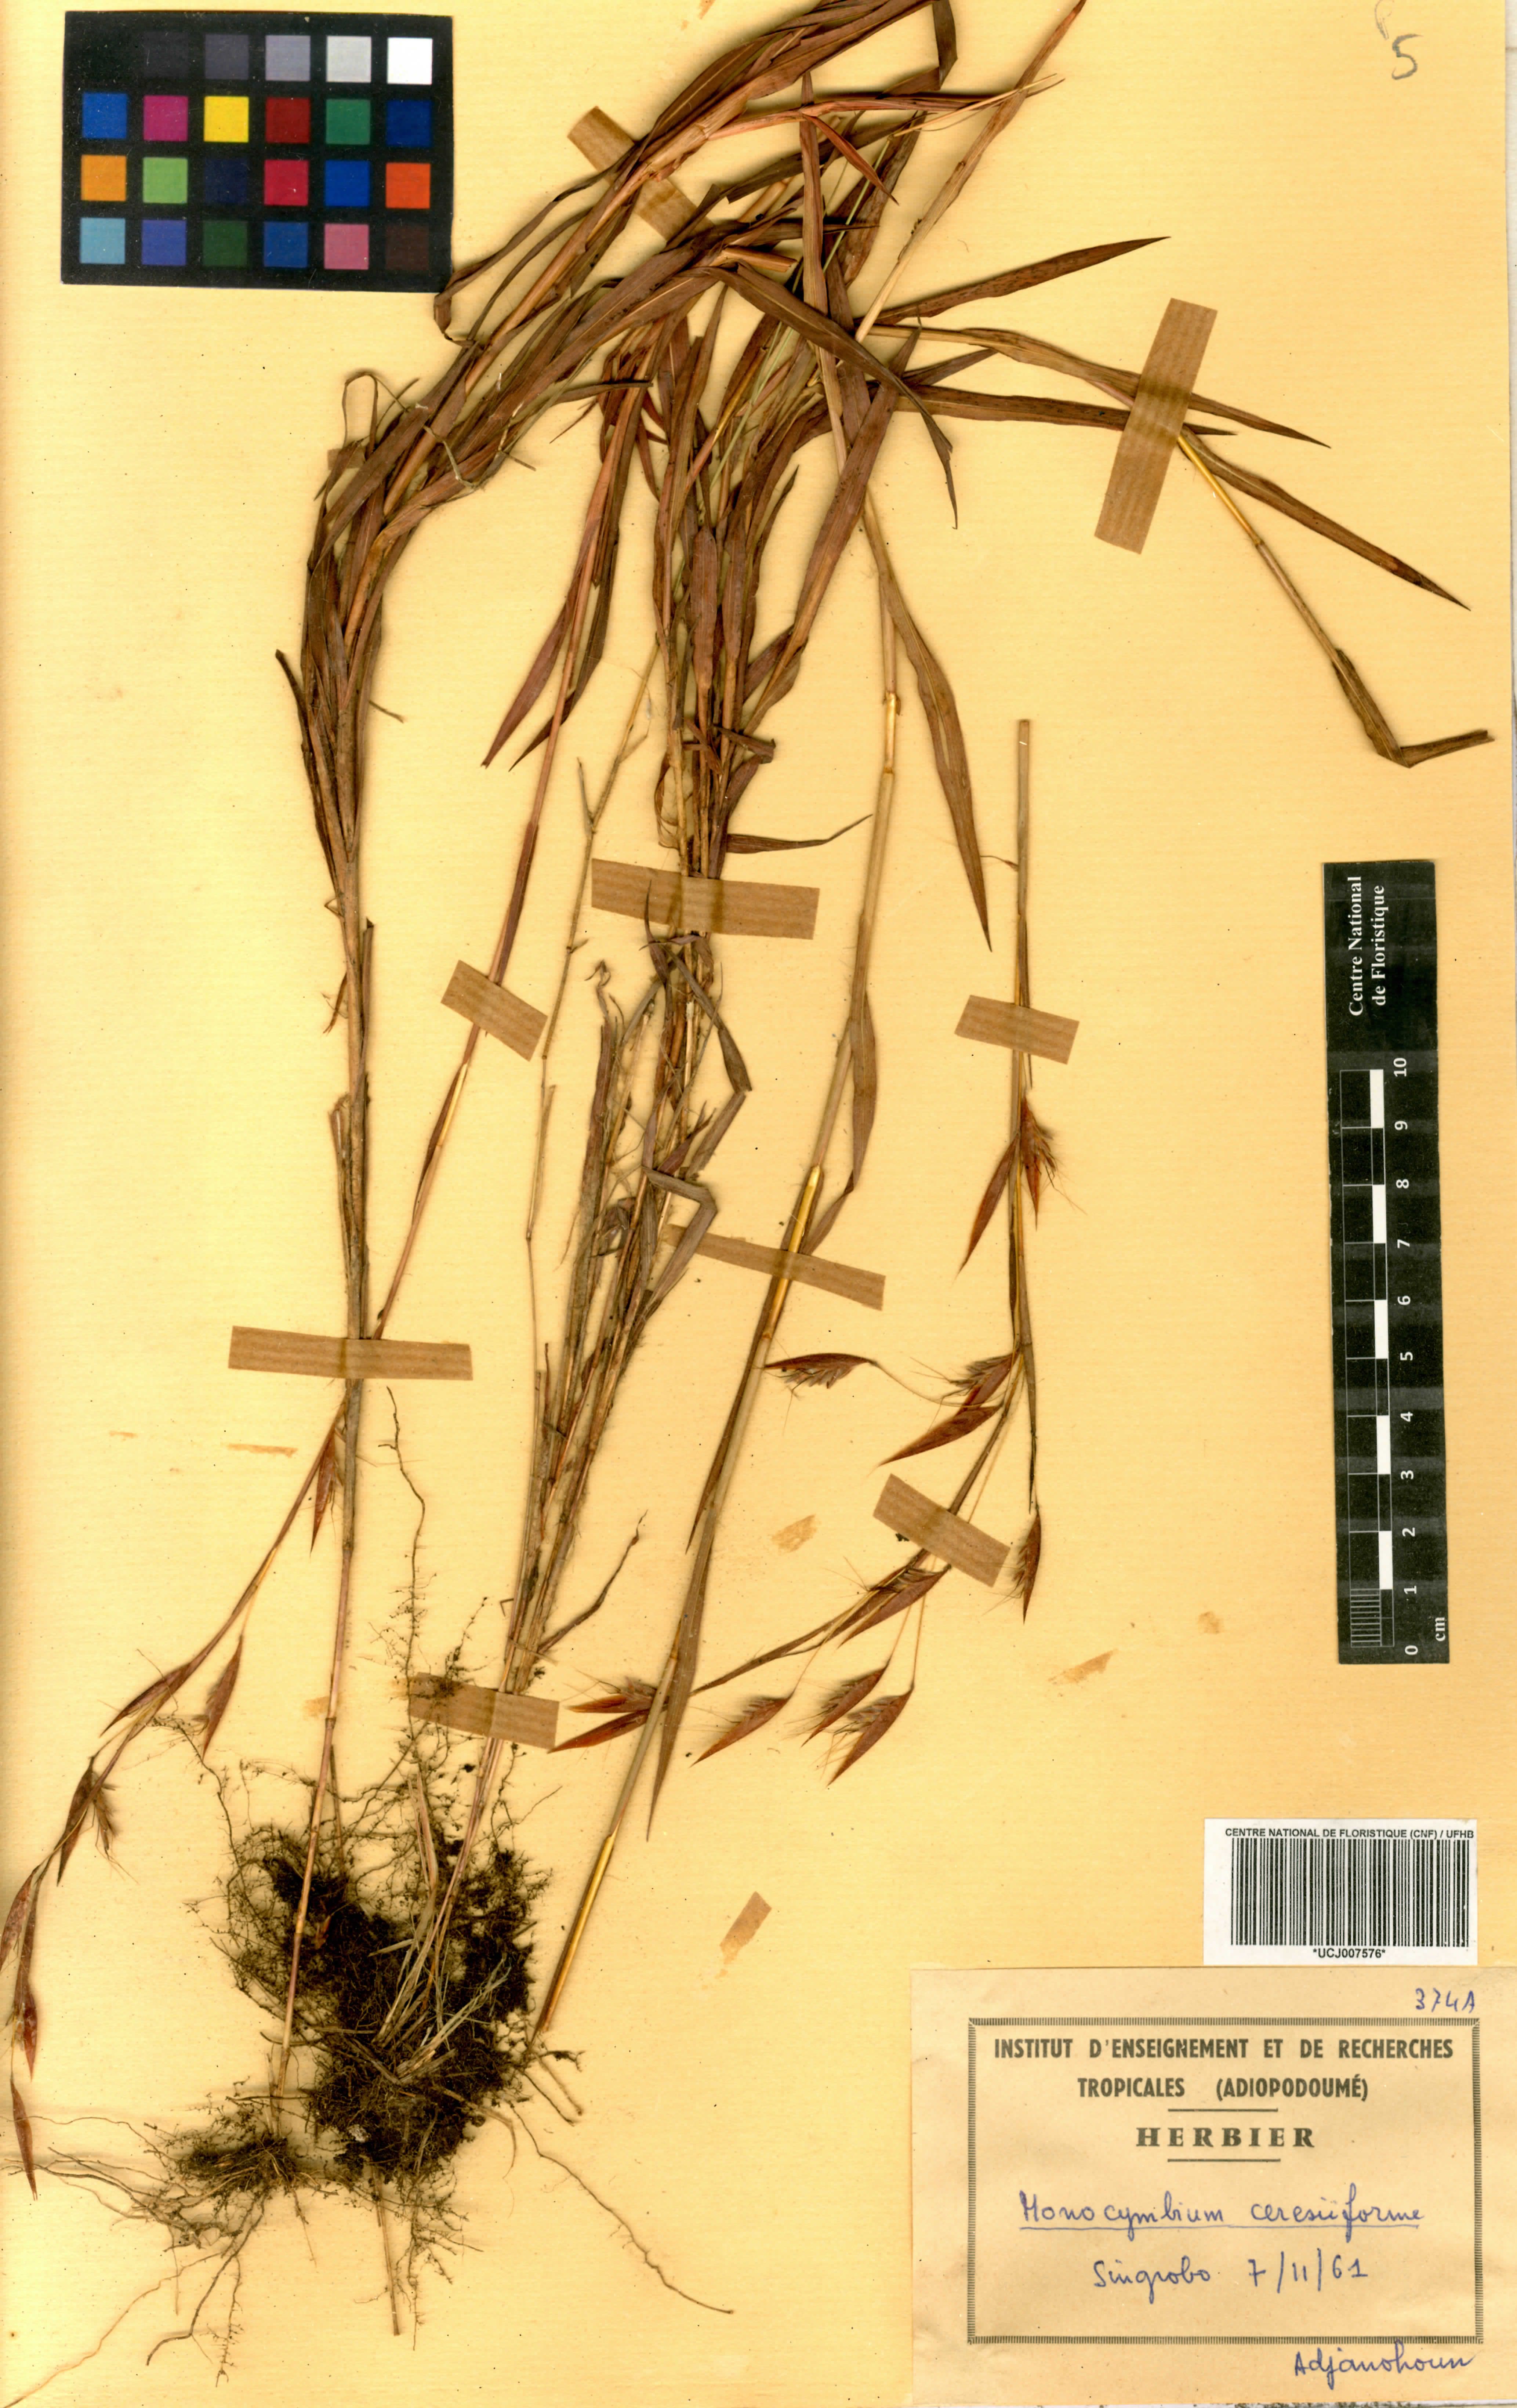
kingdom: Plantae
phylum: Tracheophyta
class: Liliopsida
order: Poales
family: Poaceae
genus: Monocymbium
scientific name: Monocymbium ceresiiforme
